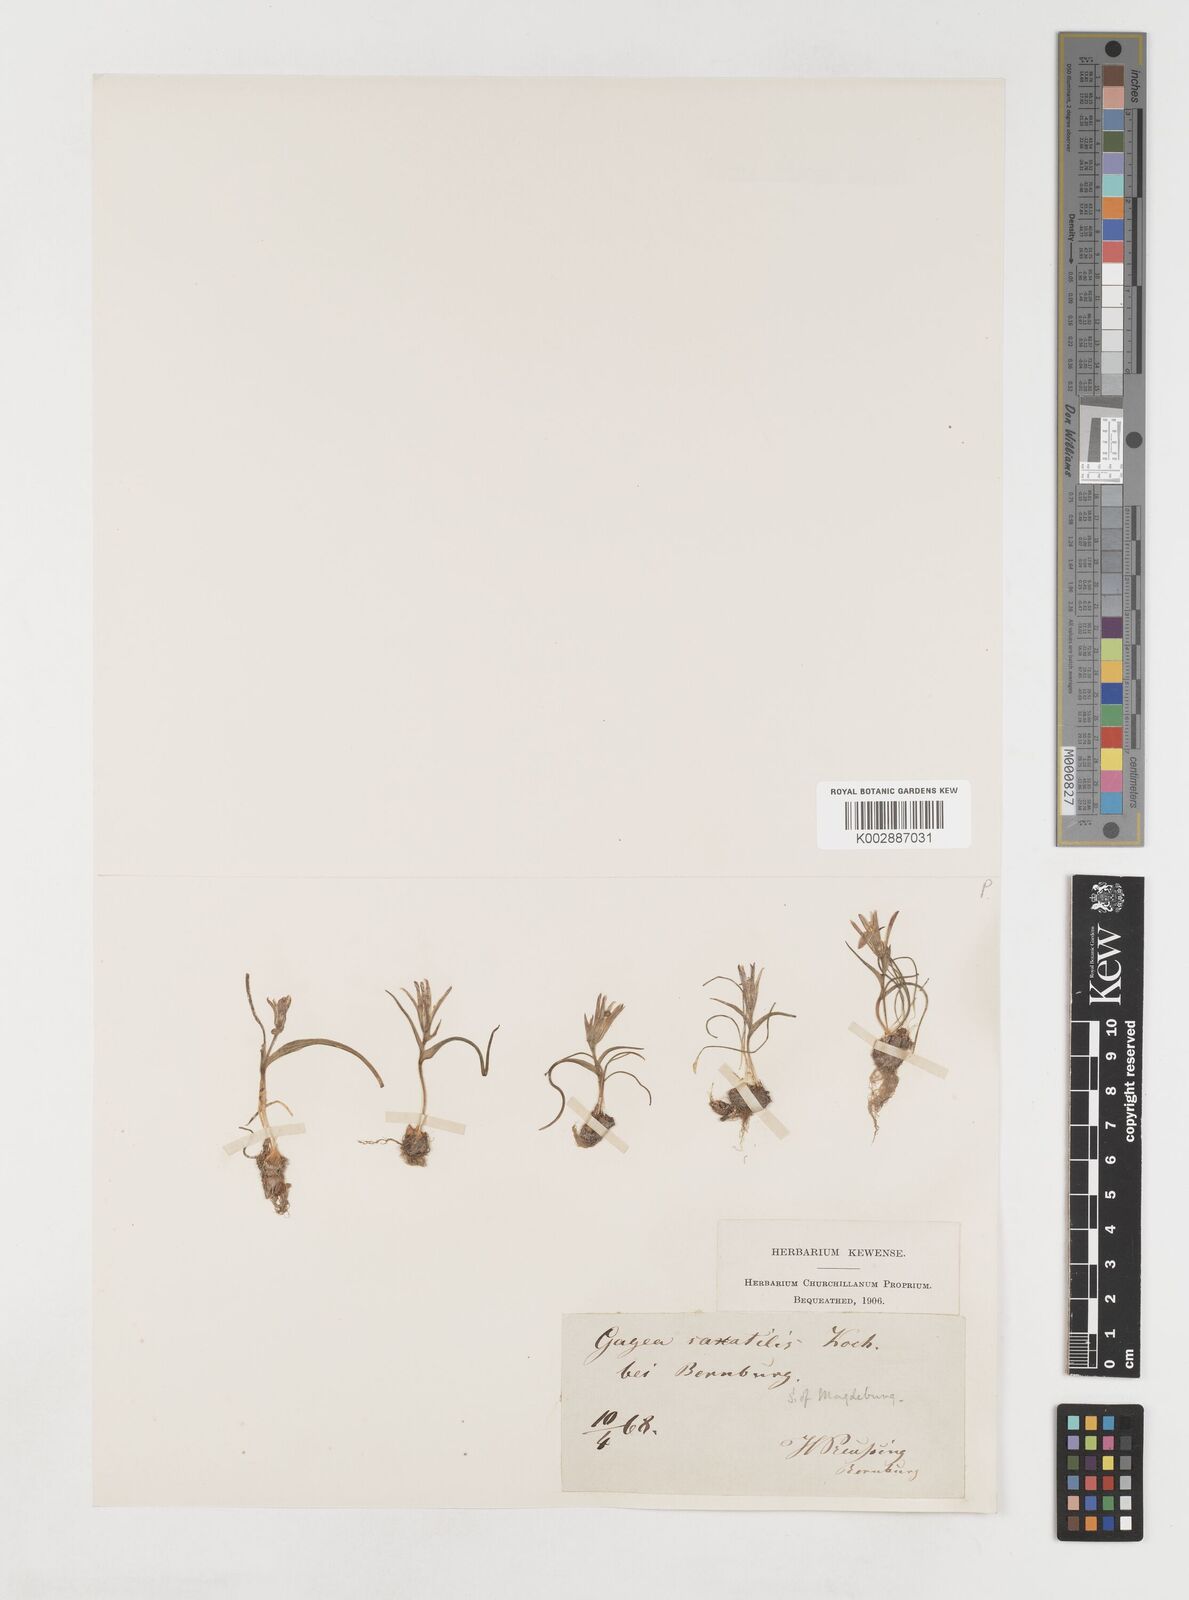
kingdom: Plantae
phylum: Tracheophyta
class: Liliopsida
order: Liliales
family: Liliaceae
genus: Gagea
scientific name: Gagea bohemica
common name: Early star-of-bethlehem
